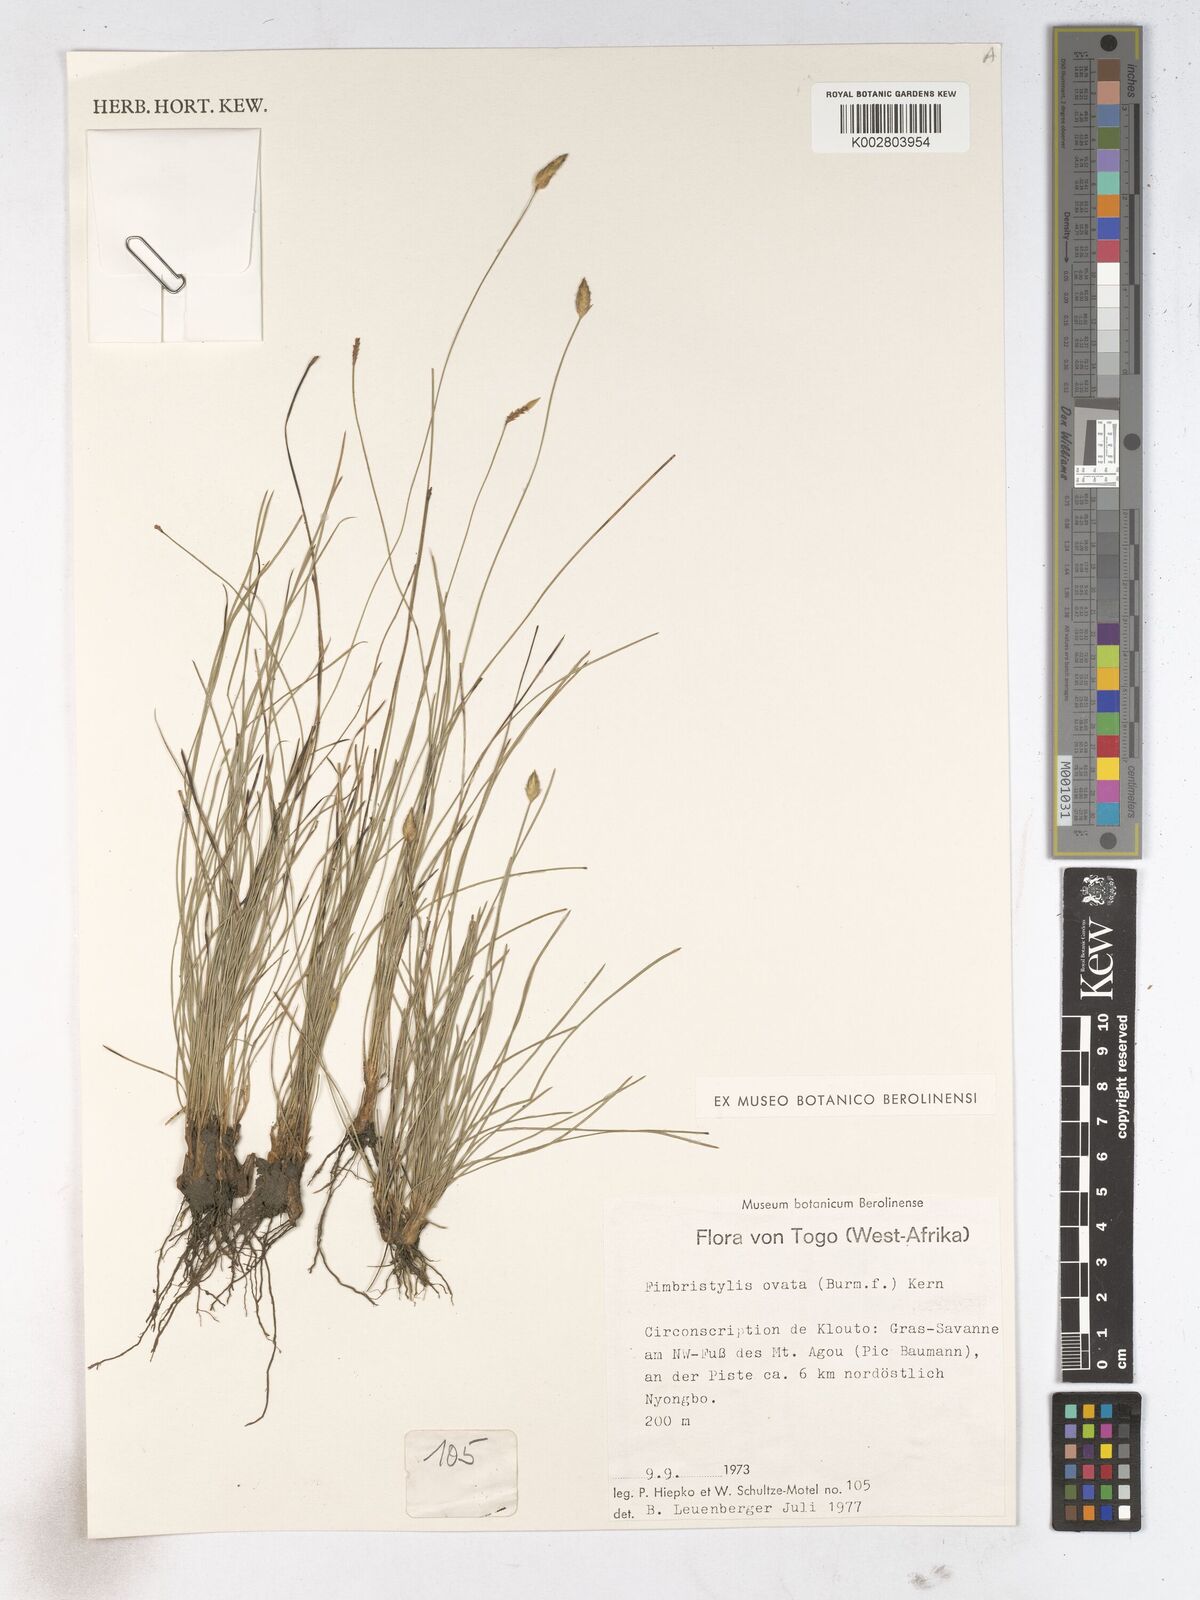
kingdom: Plantae
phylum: Tracheophyta
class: Liliopsida
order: Poales
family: Cyperaceae
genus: Abildgaardia
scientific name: Abildgaardia ovata
